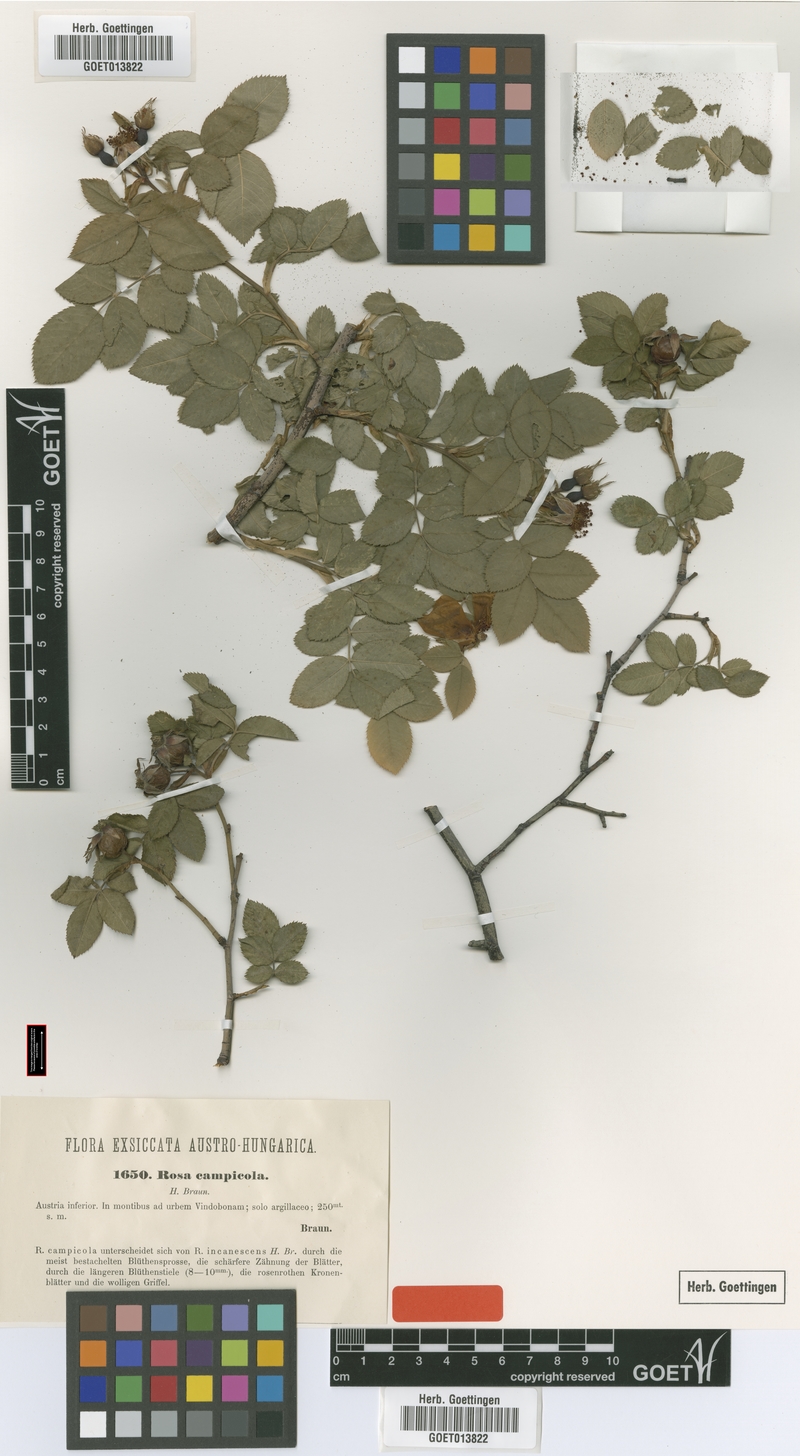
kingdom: Plantae
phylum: Tracheophyta
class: Magnoliopsida
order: Rosales
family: Rosaceae
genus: Rosa
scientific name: Rosa caesia
